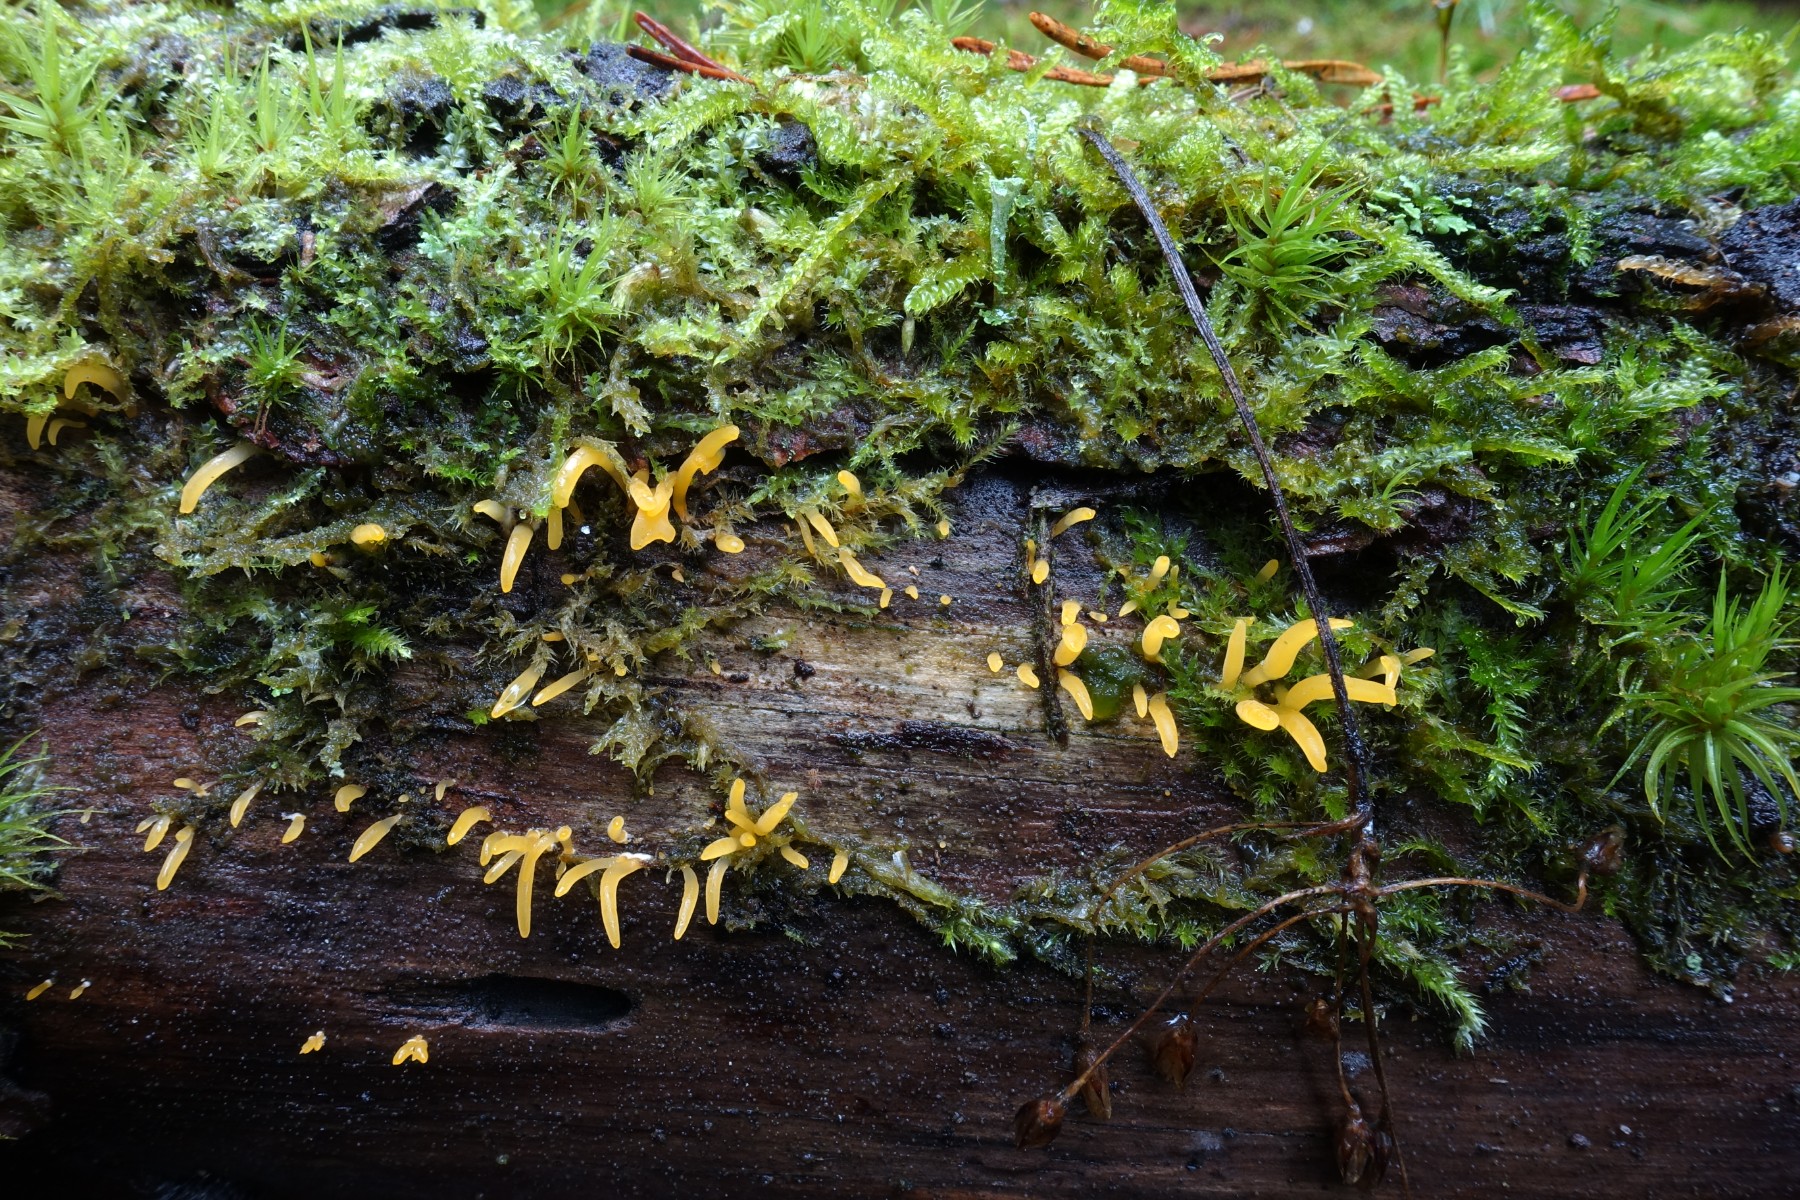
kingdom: Fungi
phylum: Basidiomycota
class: Dacrymycetes
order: Dacrymycetales
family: Dacrymycetaceae
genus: Calocera
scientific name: Calocera
